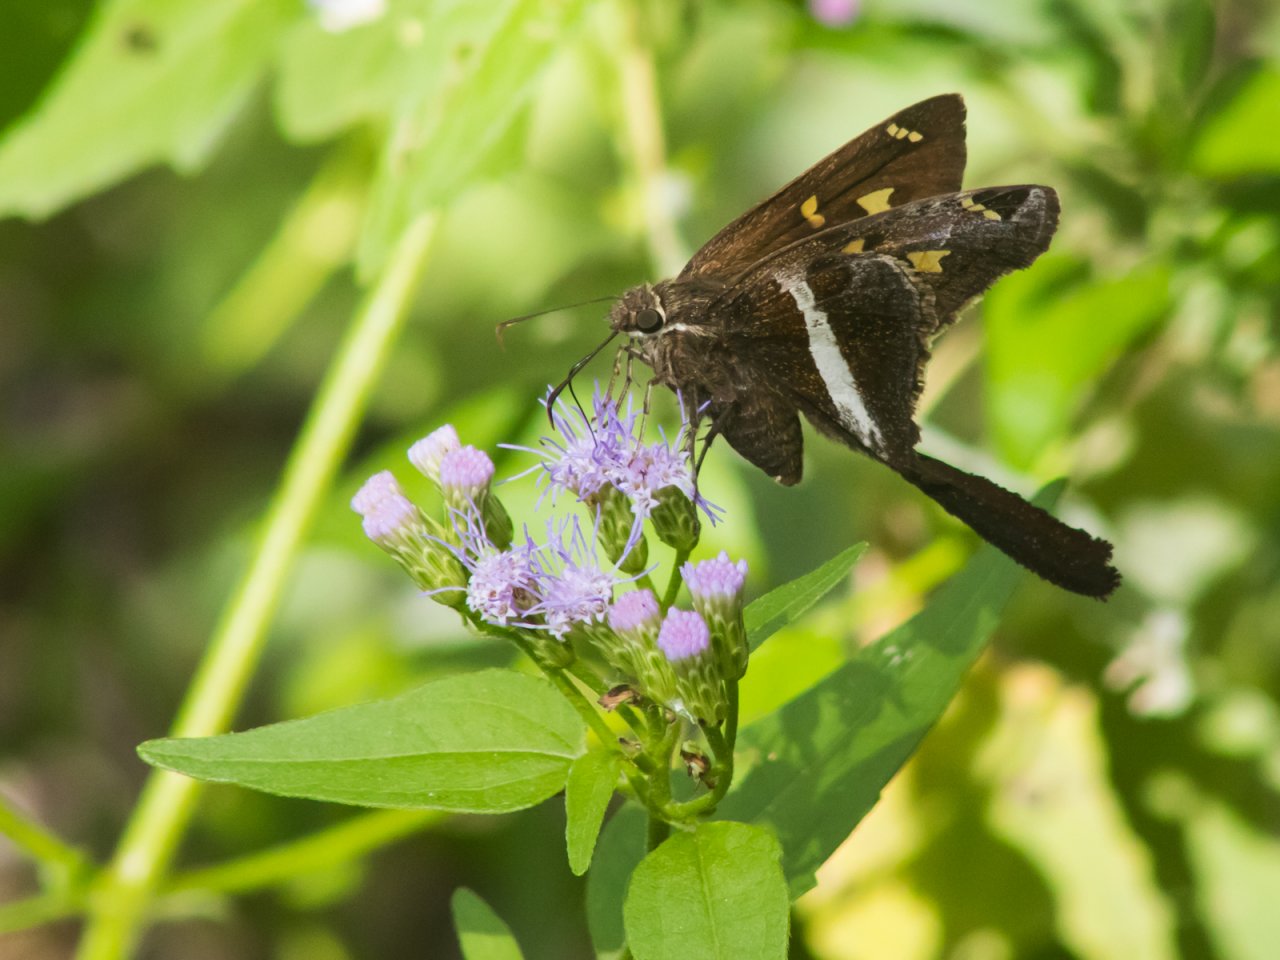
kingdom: Animalia
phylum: Arthropoda
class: Insecta
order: Lepidoptera
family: Hesperiidae
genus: Chioides
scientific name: Chioides catillus
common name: White-striped Longtail
